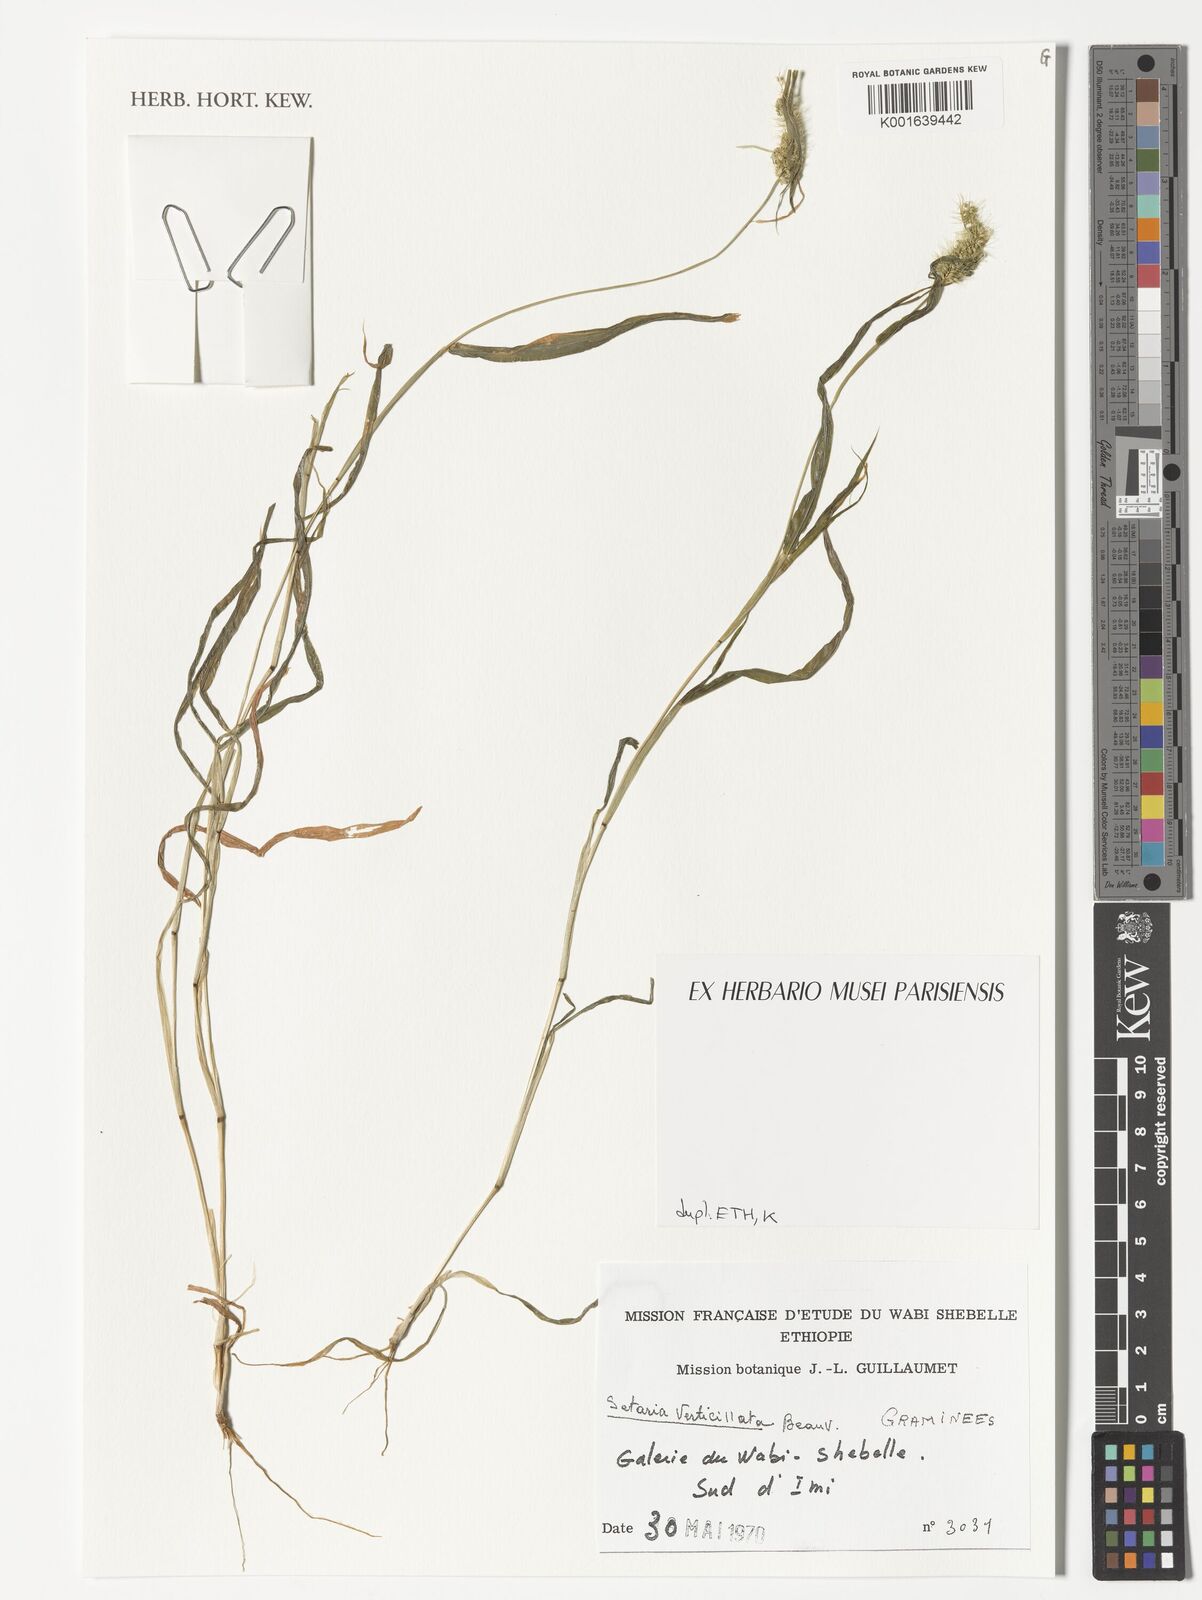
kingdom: Plantae
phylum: Tracheophyta
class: Liliopsida
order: Poales
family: Poaceae
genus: Setaria
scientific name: Setaria verticillata
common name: Hooked bristlegrass
